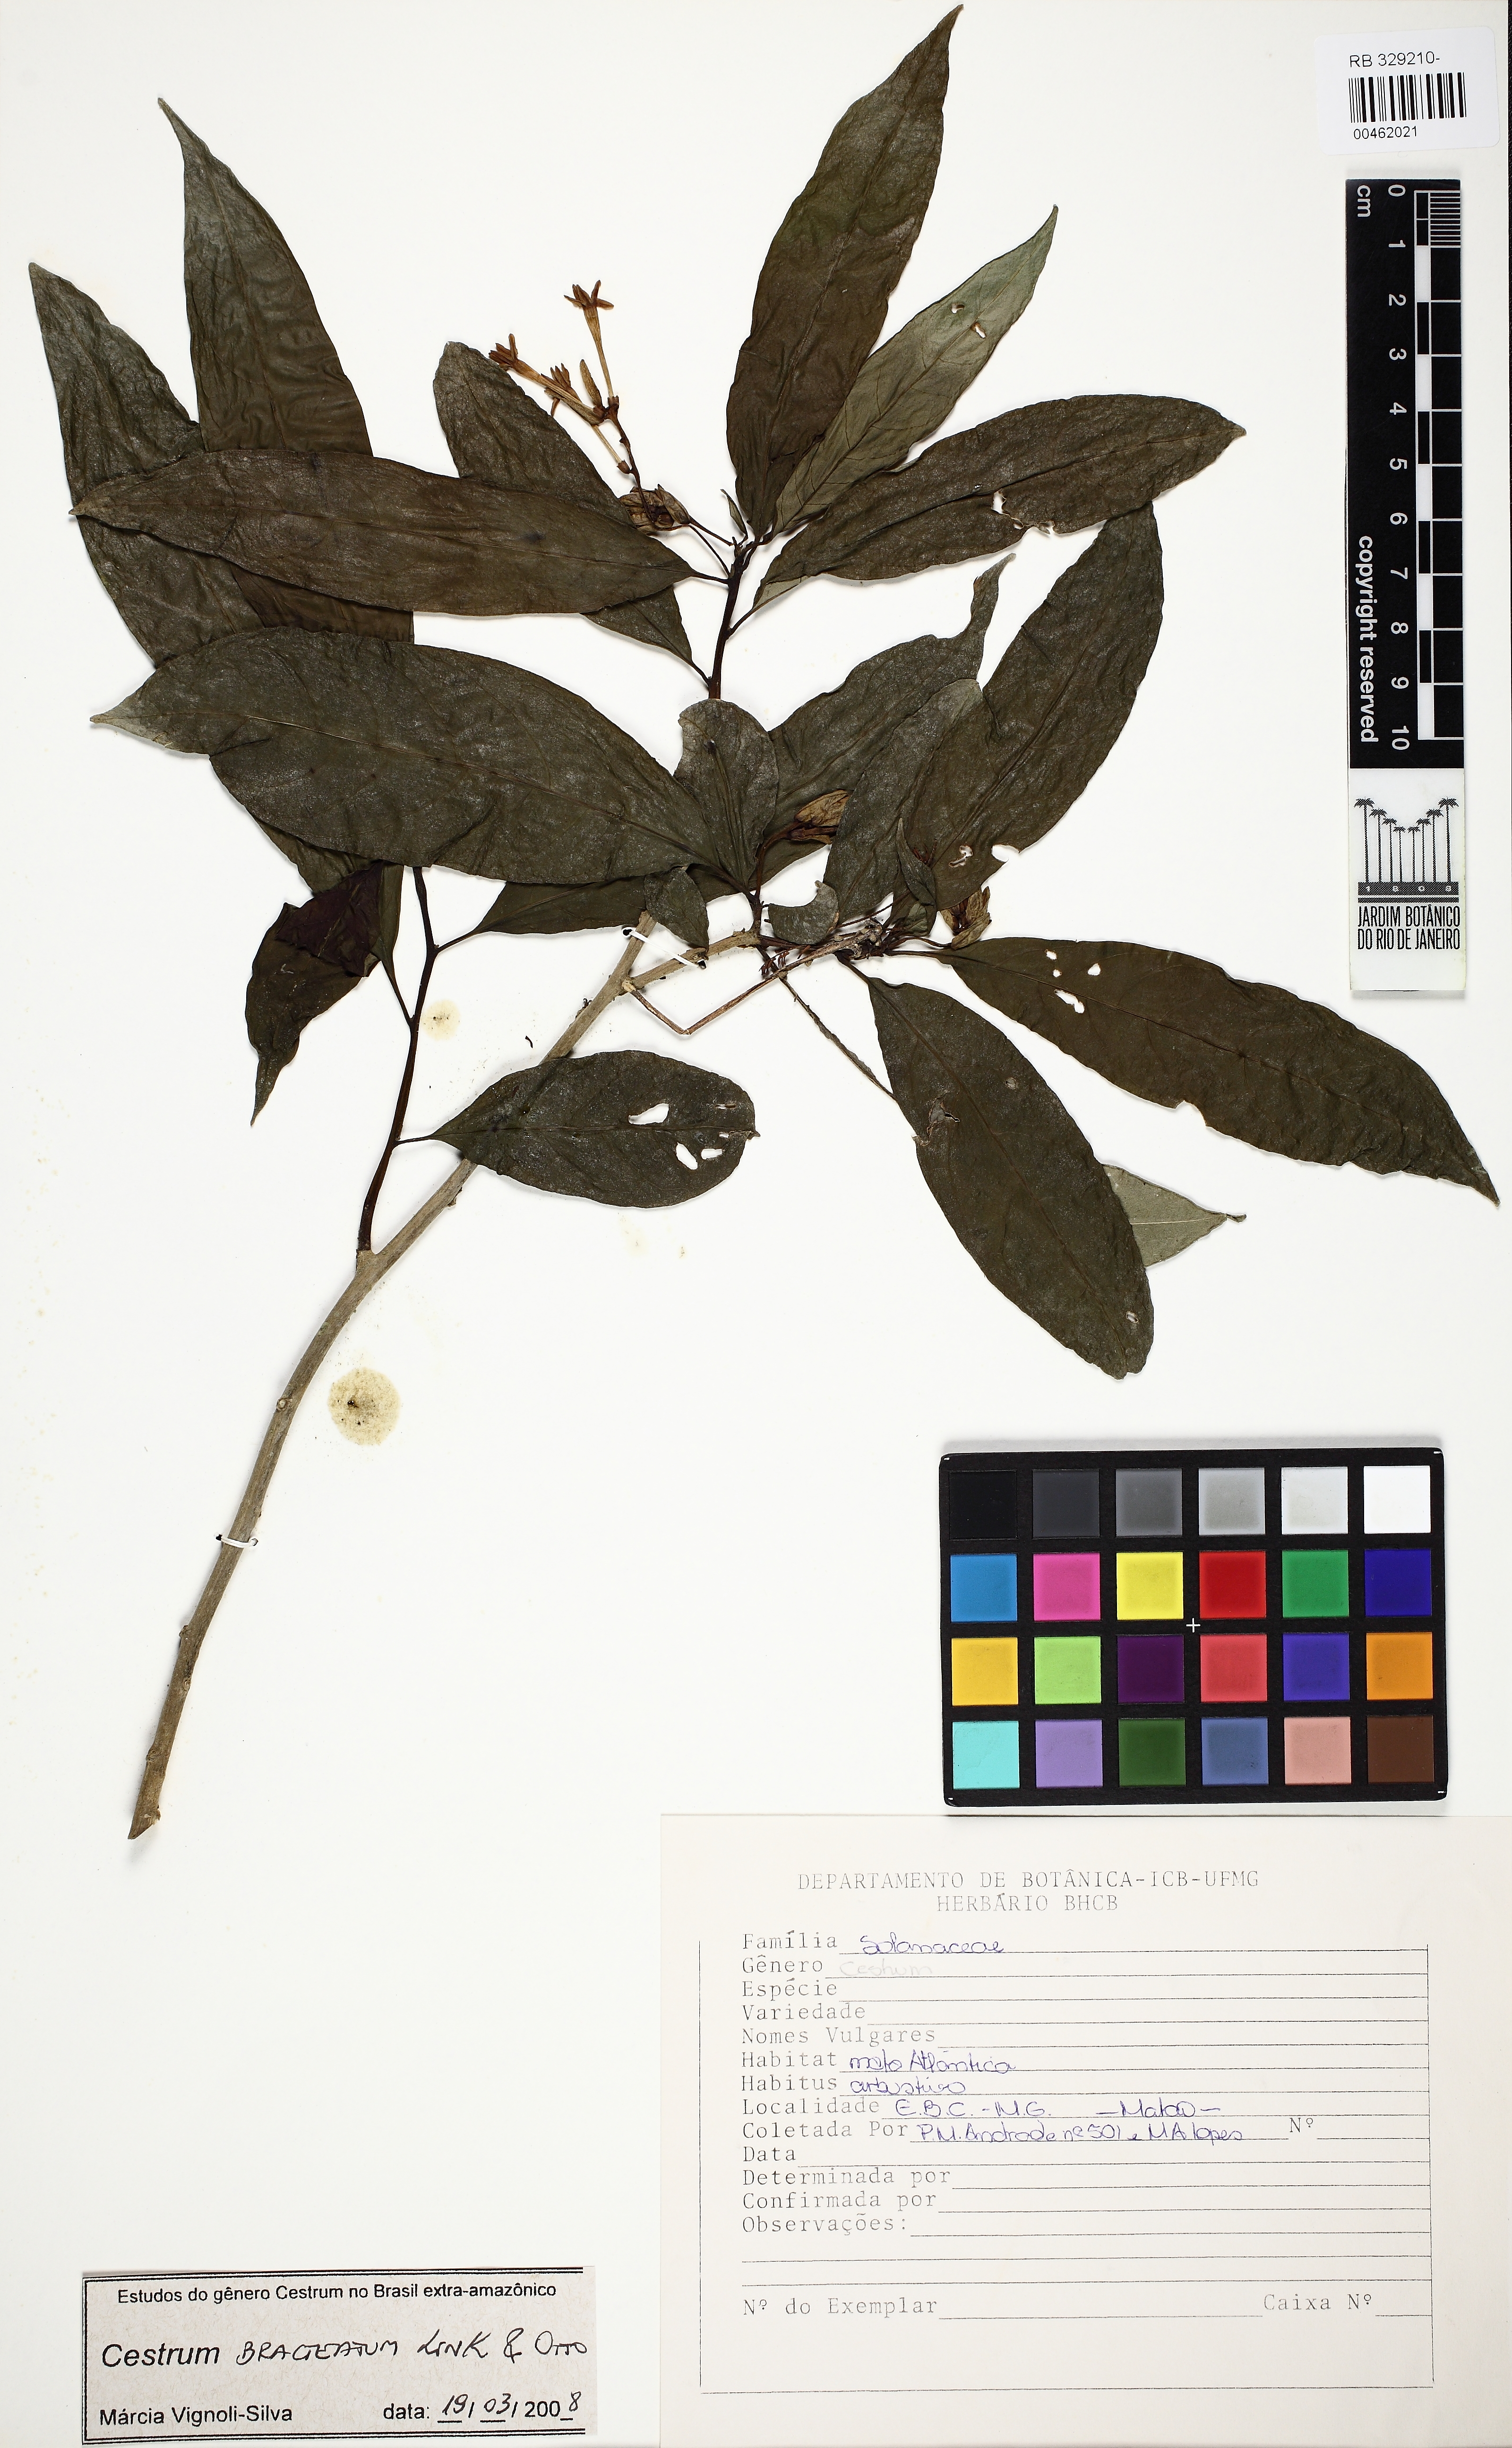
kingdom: Plantae
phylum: Tracheophyta
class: Magnoliopsida
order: Solanales
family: Solanaceae
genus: Cestrum
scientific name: Cestrum bracteatum
